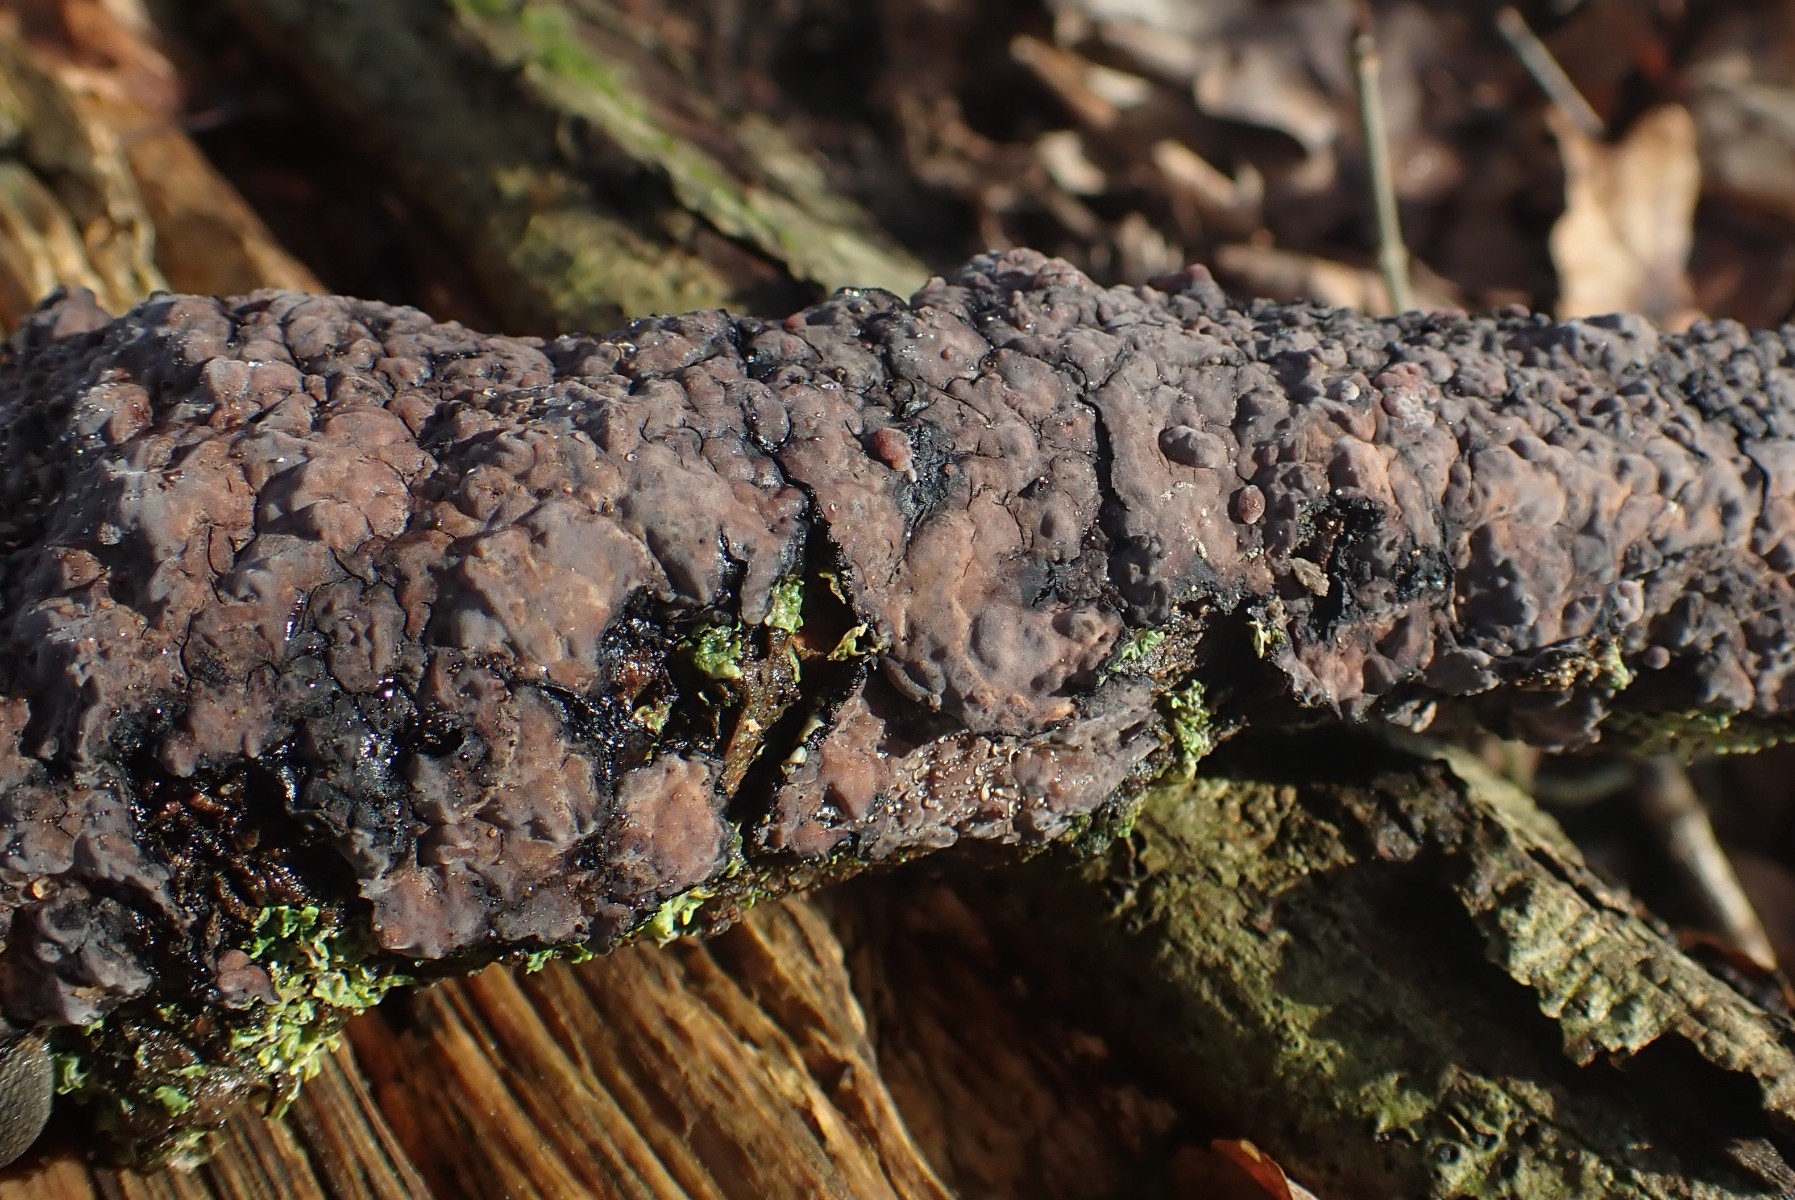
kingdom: Fungi
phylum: Basidiomycota
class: Agaricomycetes
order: Russulales
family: Peniophoraceae
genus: Peniophora
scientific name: Peniophora quercina
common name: ege-voksskind
